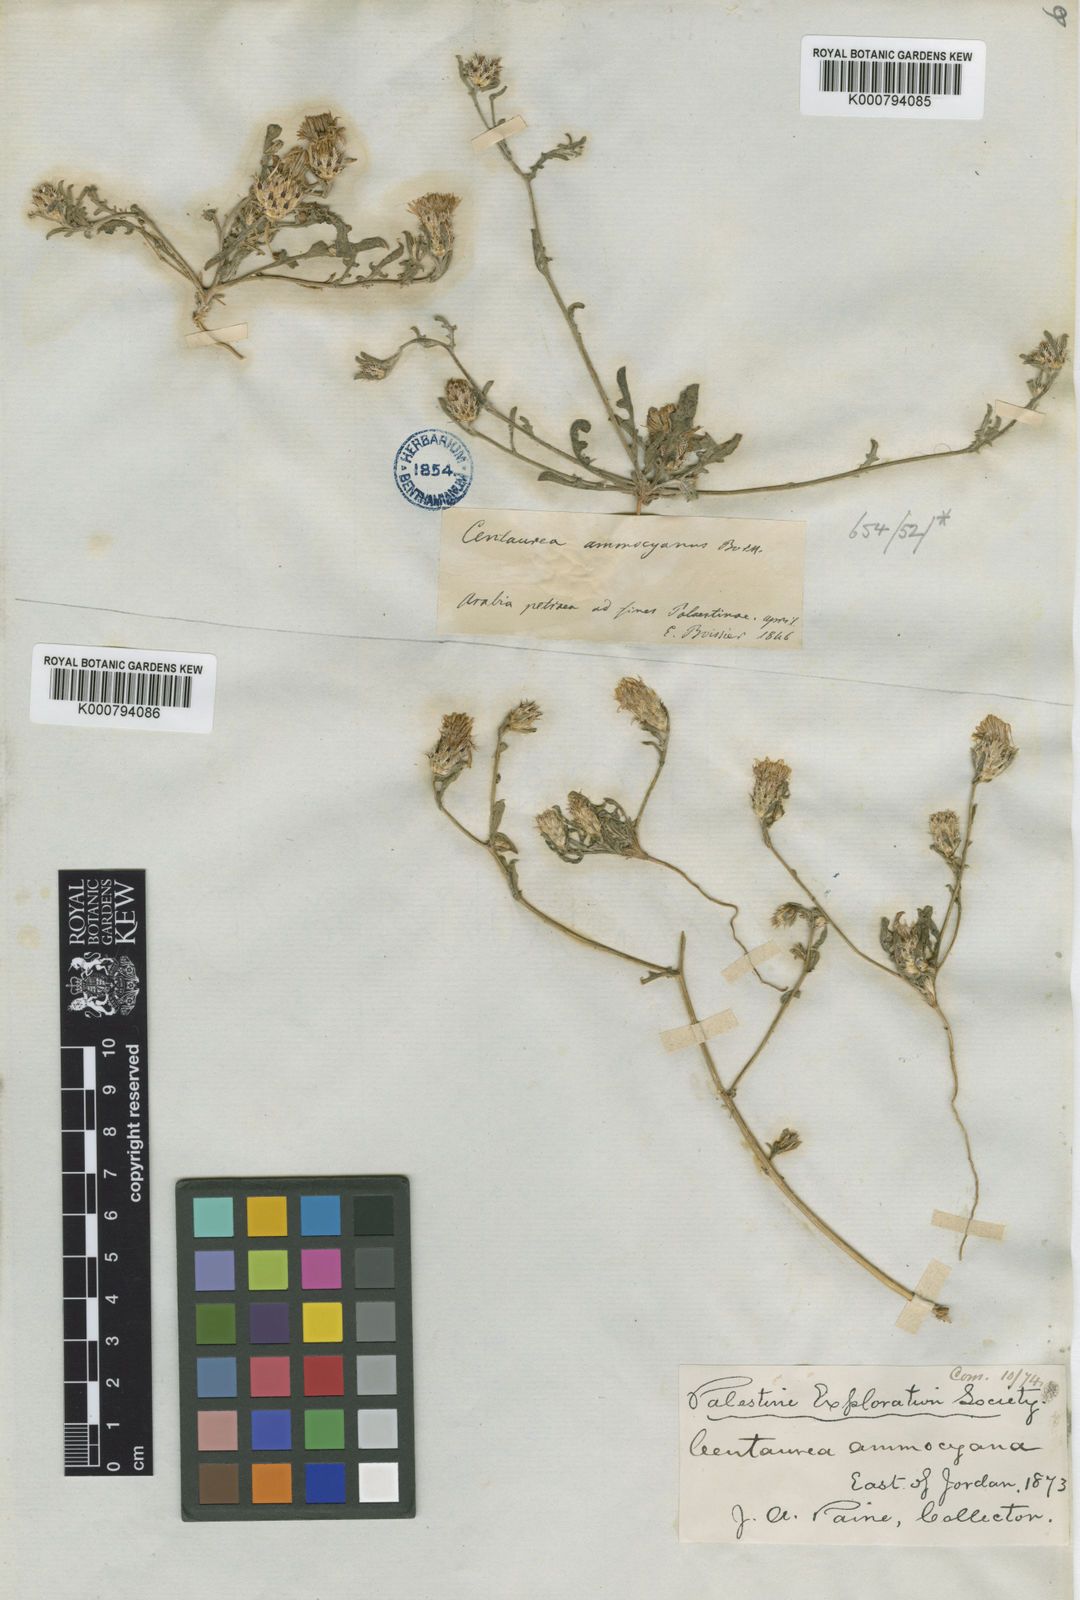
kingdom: Plantae
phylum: Tracheophyta
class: Magnoliopsida
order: Asterales
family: Asteraceae
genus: Centaurea
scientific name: Centaurea ammocyanus
